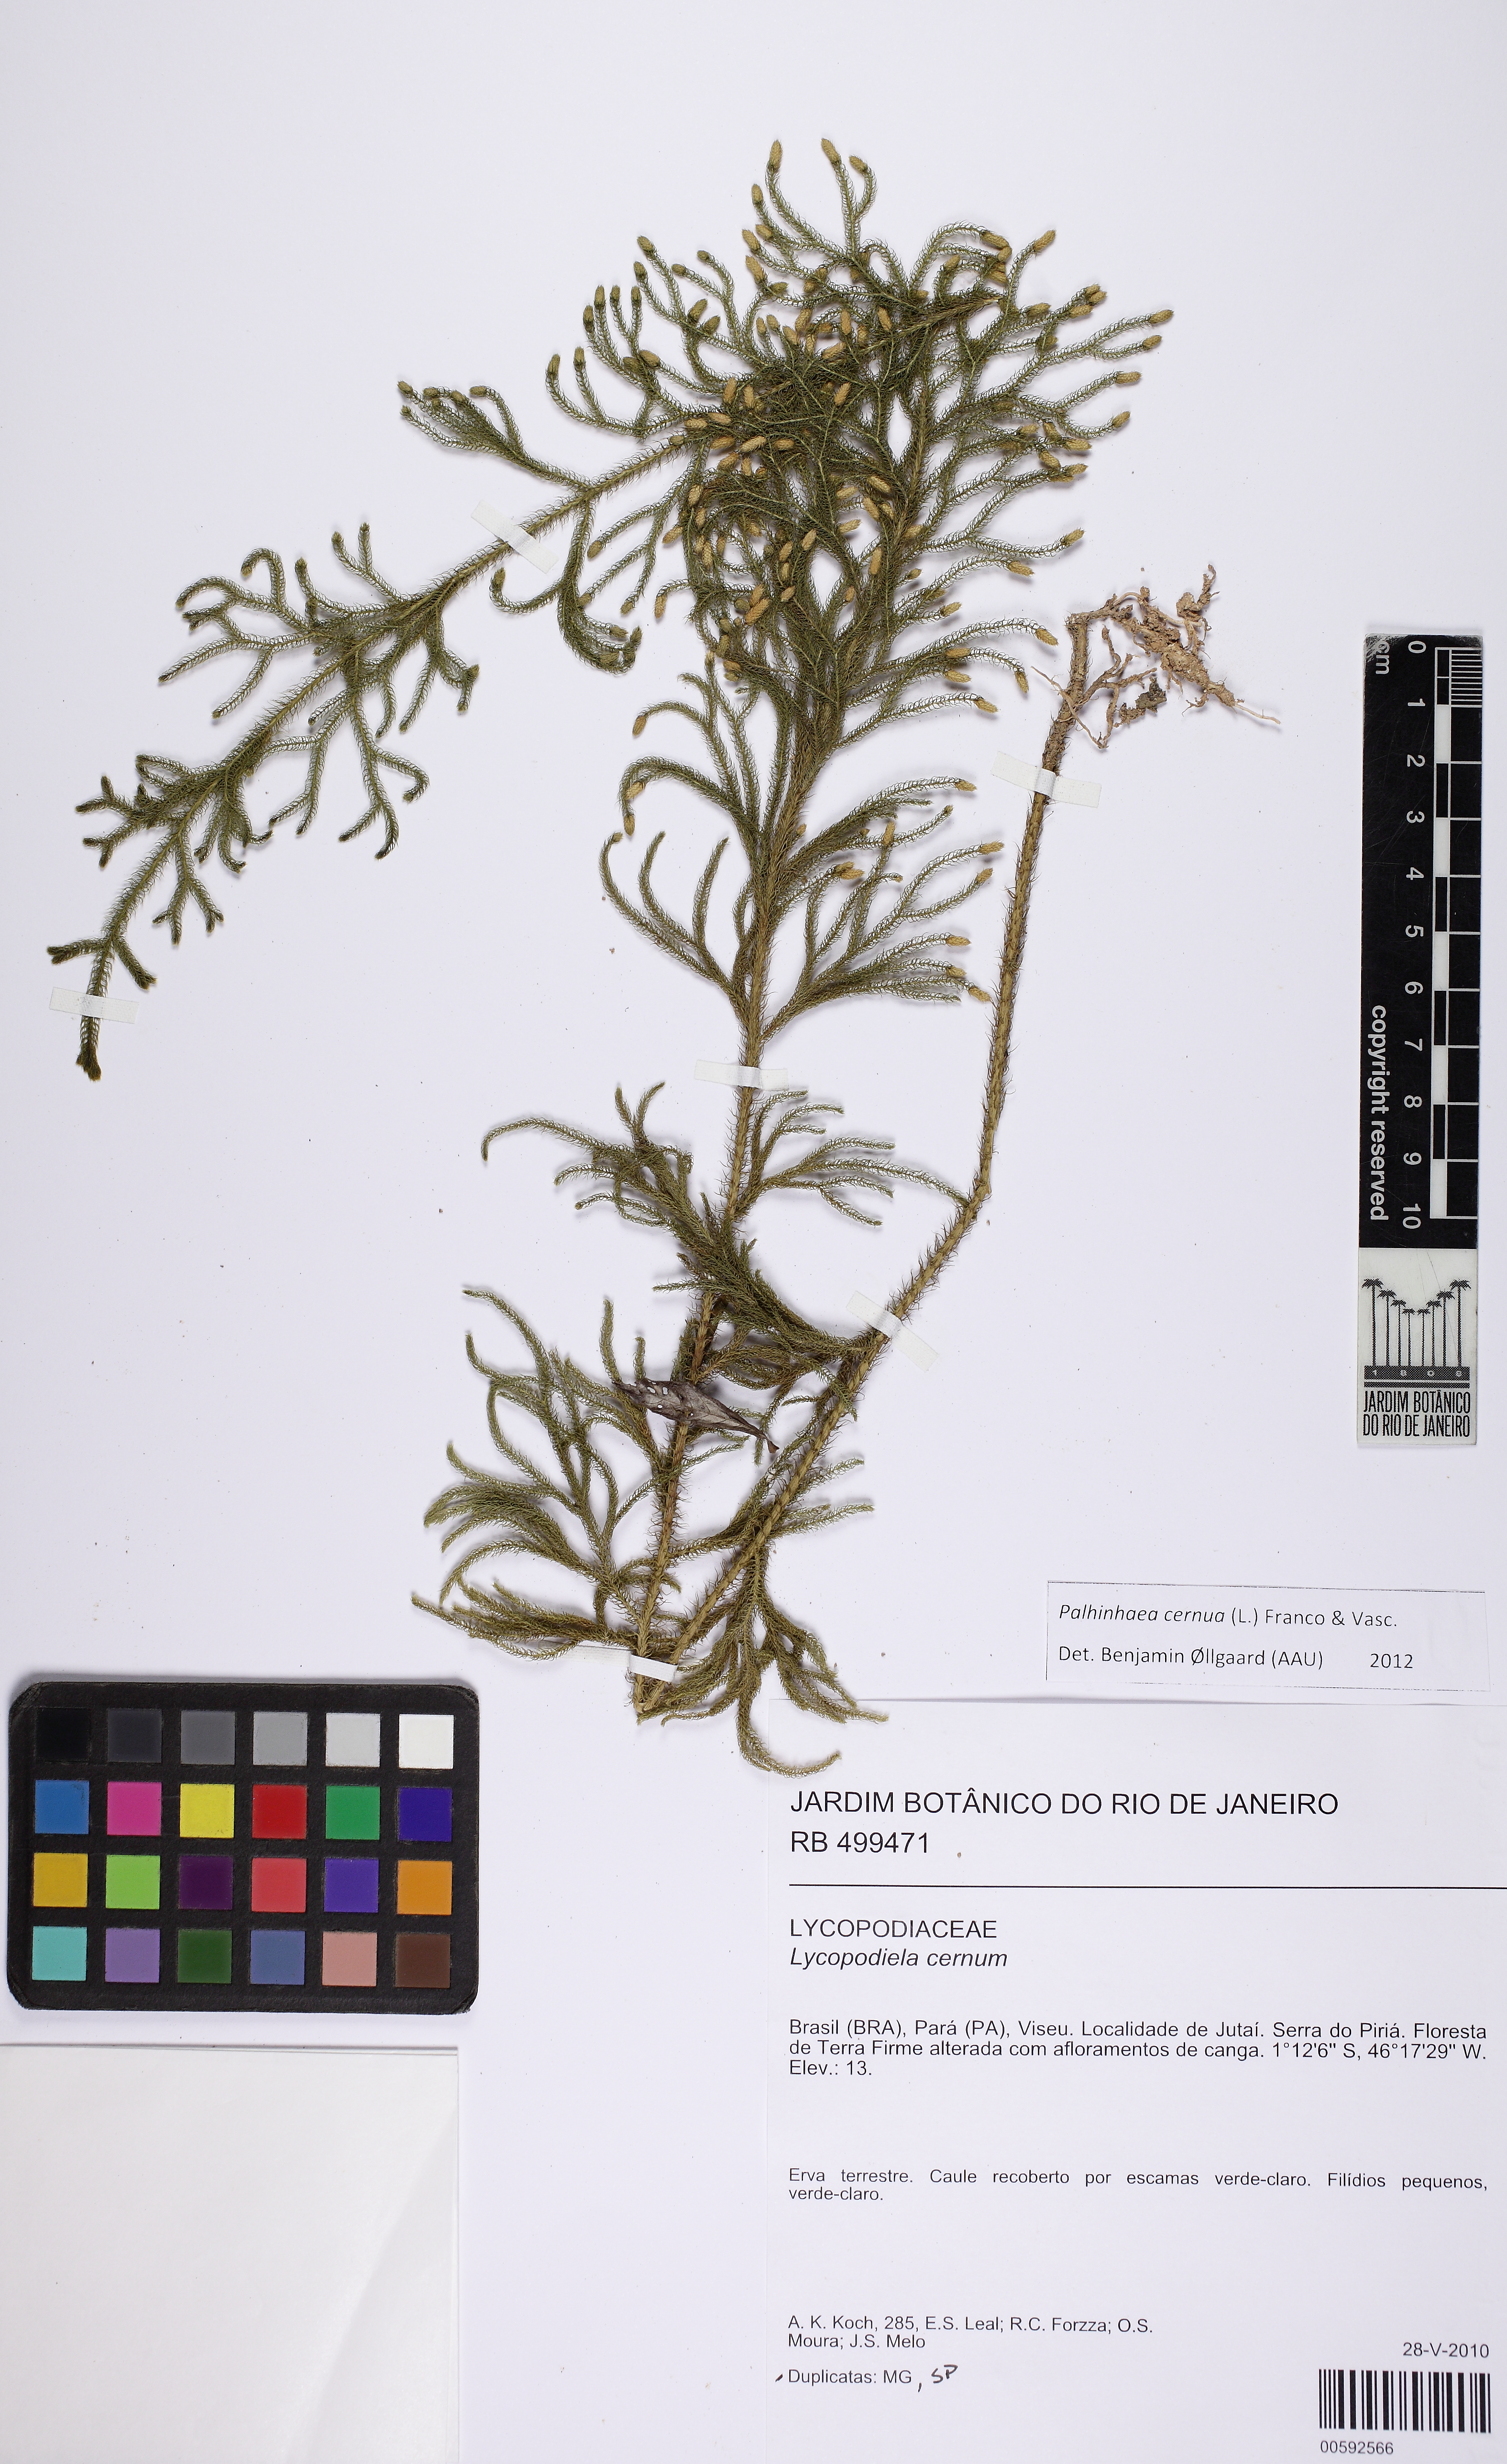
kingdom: Plantae
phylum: Tracheophyta
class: Lycopodiopsida
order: Lycopodiales
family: Lycopodiaceae
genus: Palhinhaea
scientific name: Palhinhaea cernua
